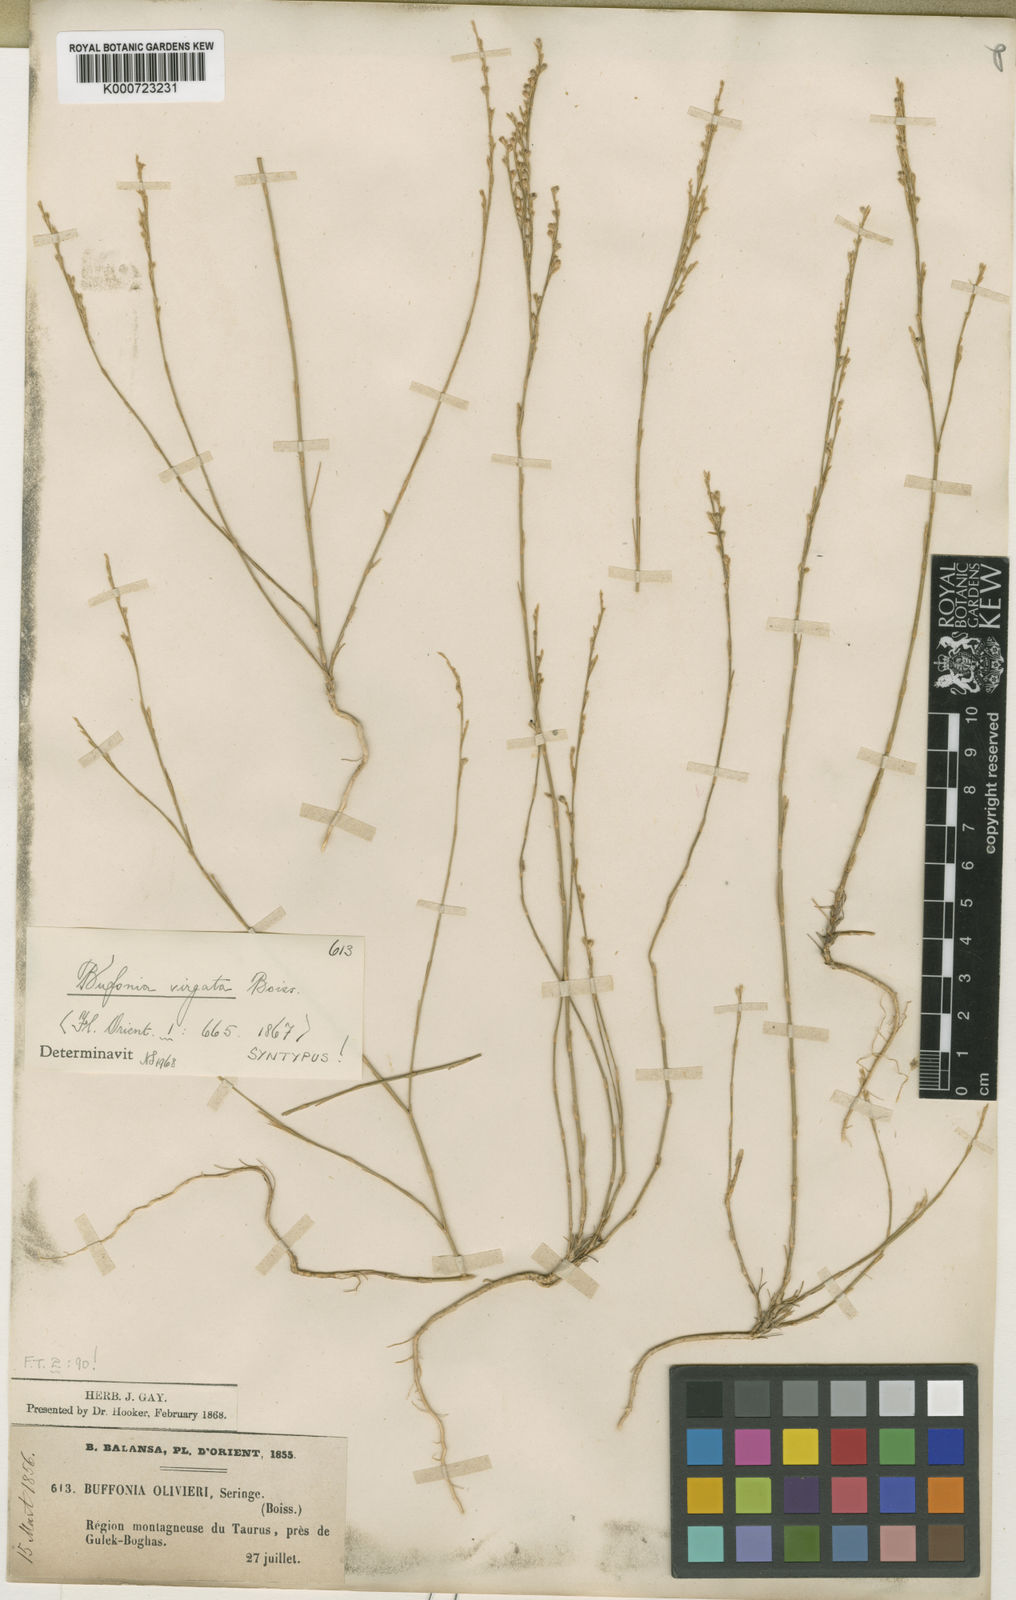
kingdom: Plantae
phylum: Tracheophyta
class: Magnoliopsida
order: Caryophyllales
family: Caryophyllaceae
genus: Bufonia
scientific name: Bufonia virgata
